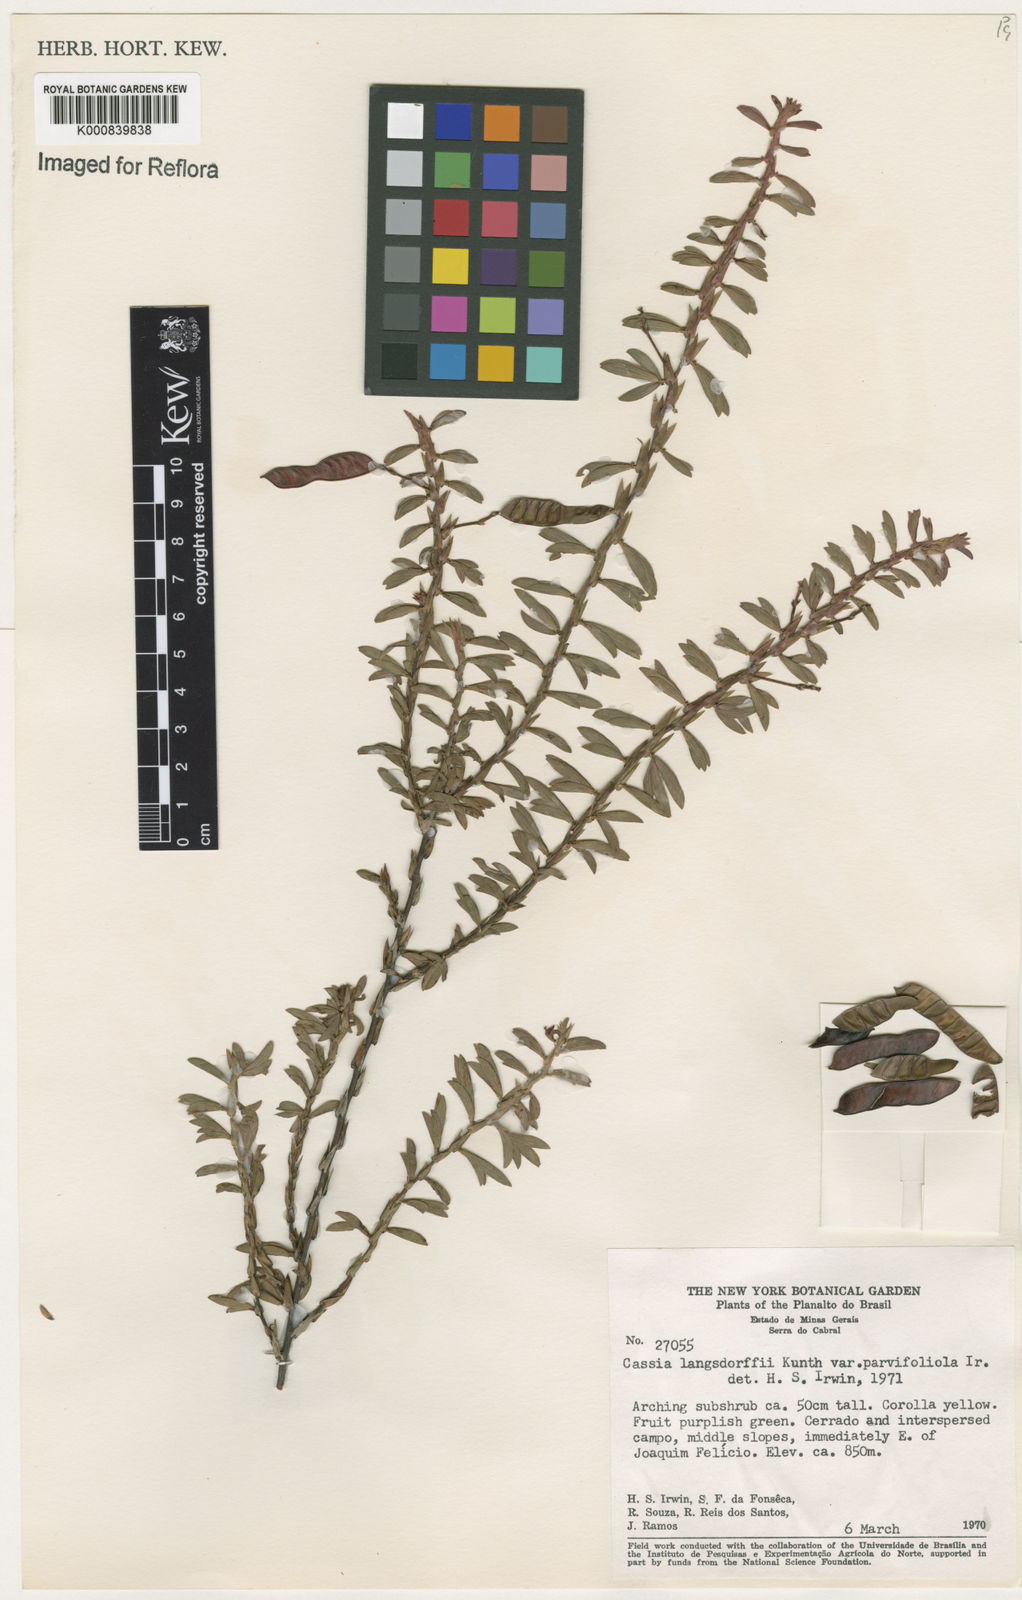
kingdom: Plantae
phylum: Tracheophyta
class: Magnoliopsida
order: Fabales
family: Fabaceae
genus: Chamaecrista
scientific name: Chamaecrista ramosa
